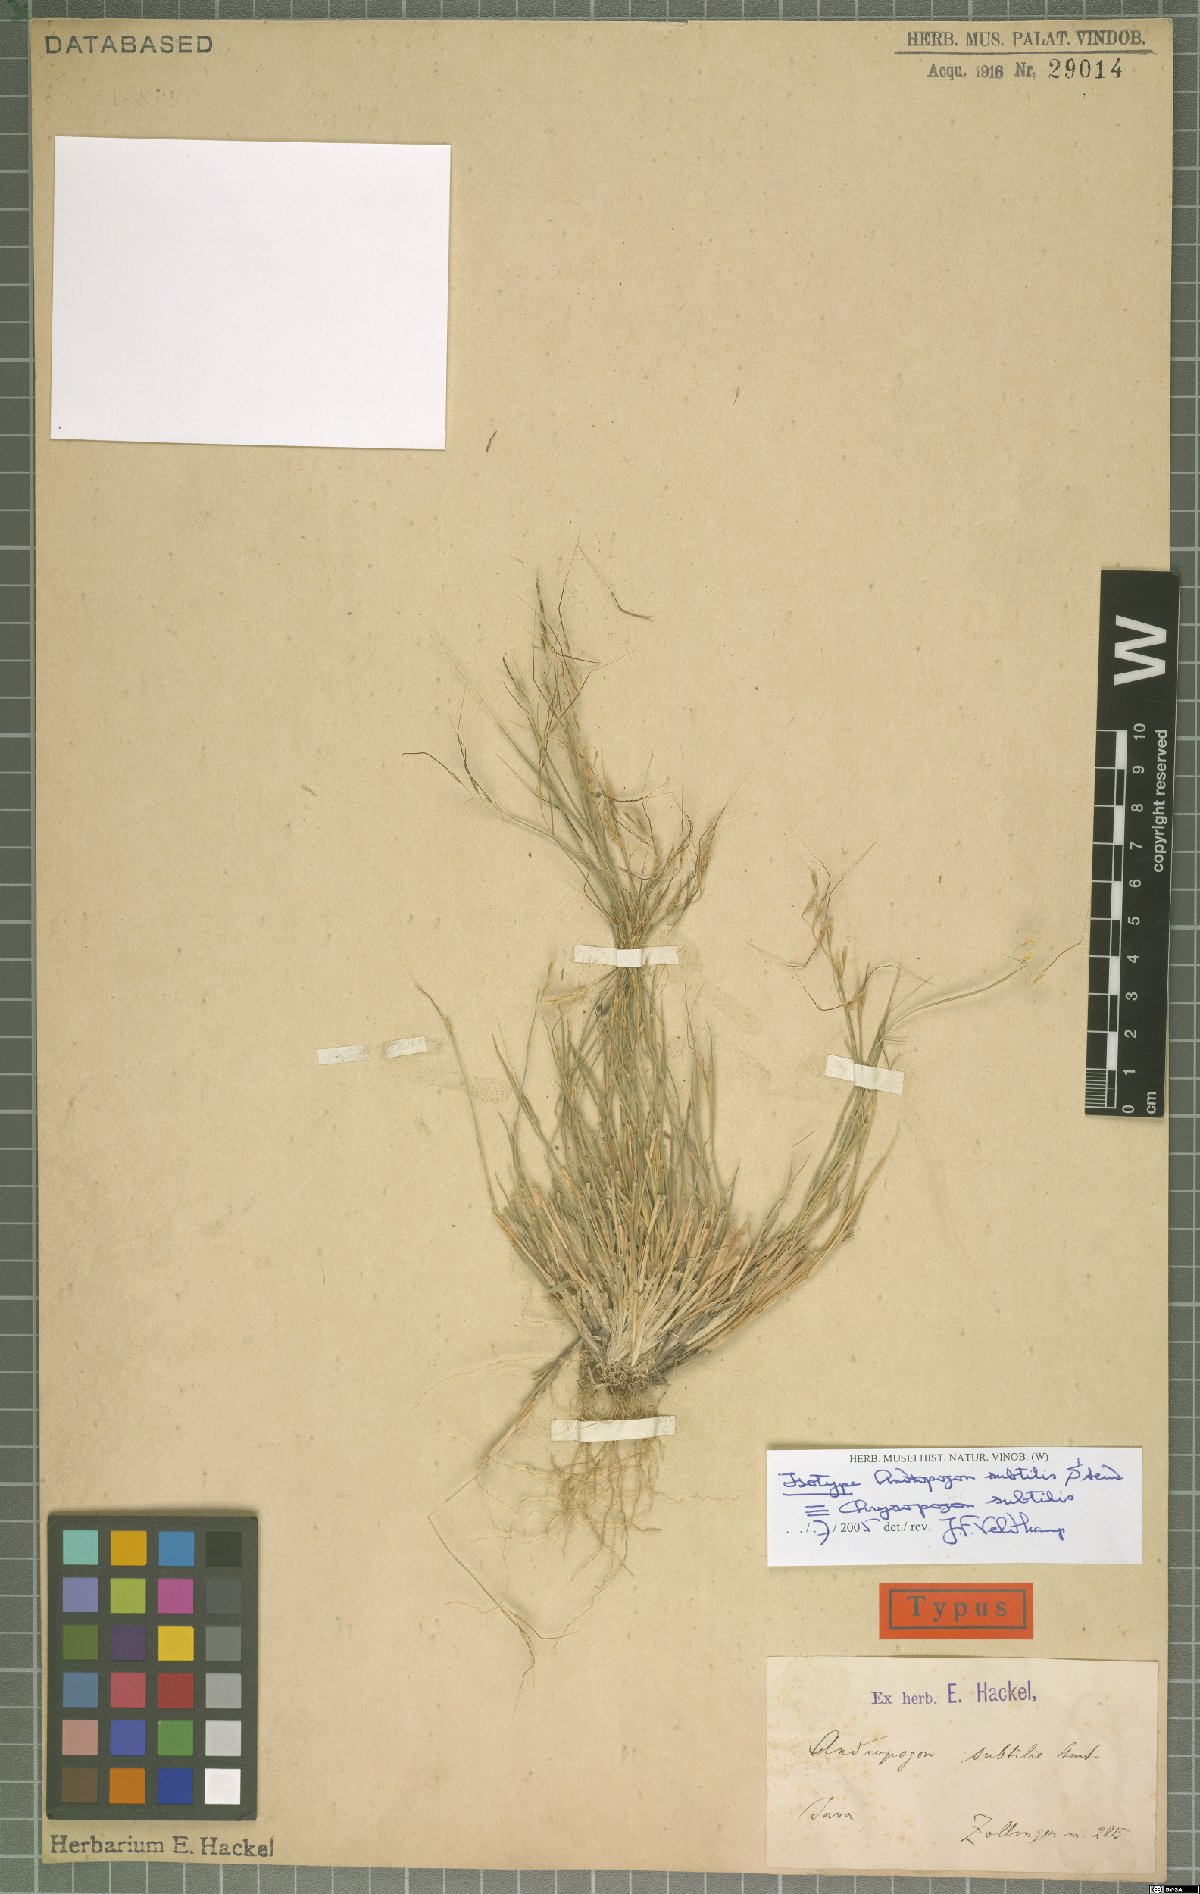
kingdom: Plantae
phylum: Tracheophyta
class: Liliopsida
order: Poales
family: Poaceae
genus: Chrysopogon
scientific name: Chrysopogon subtilis
